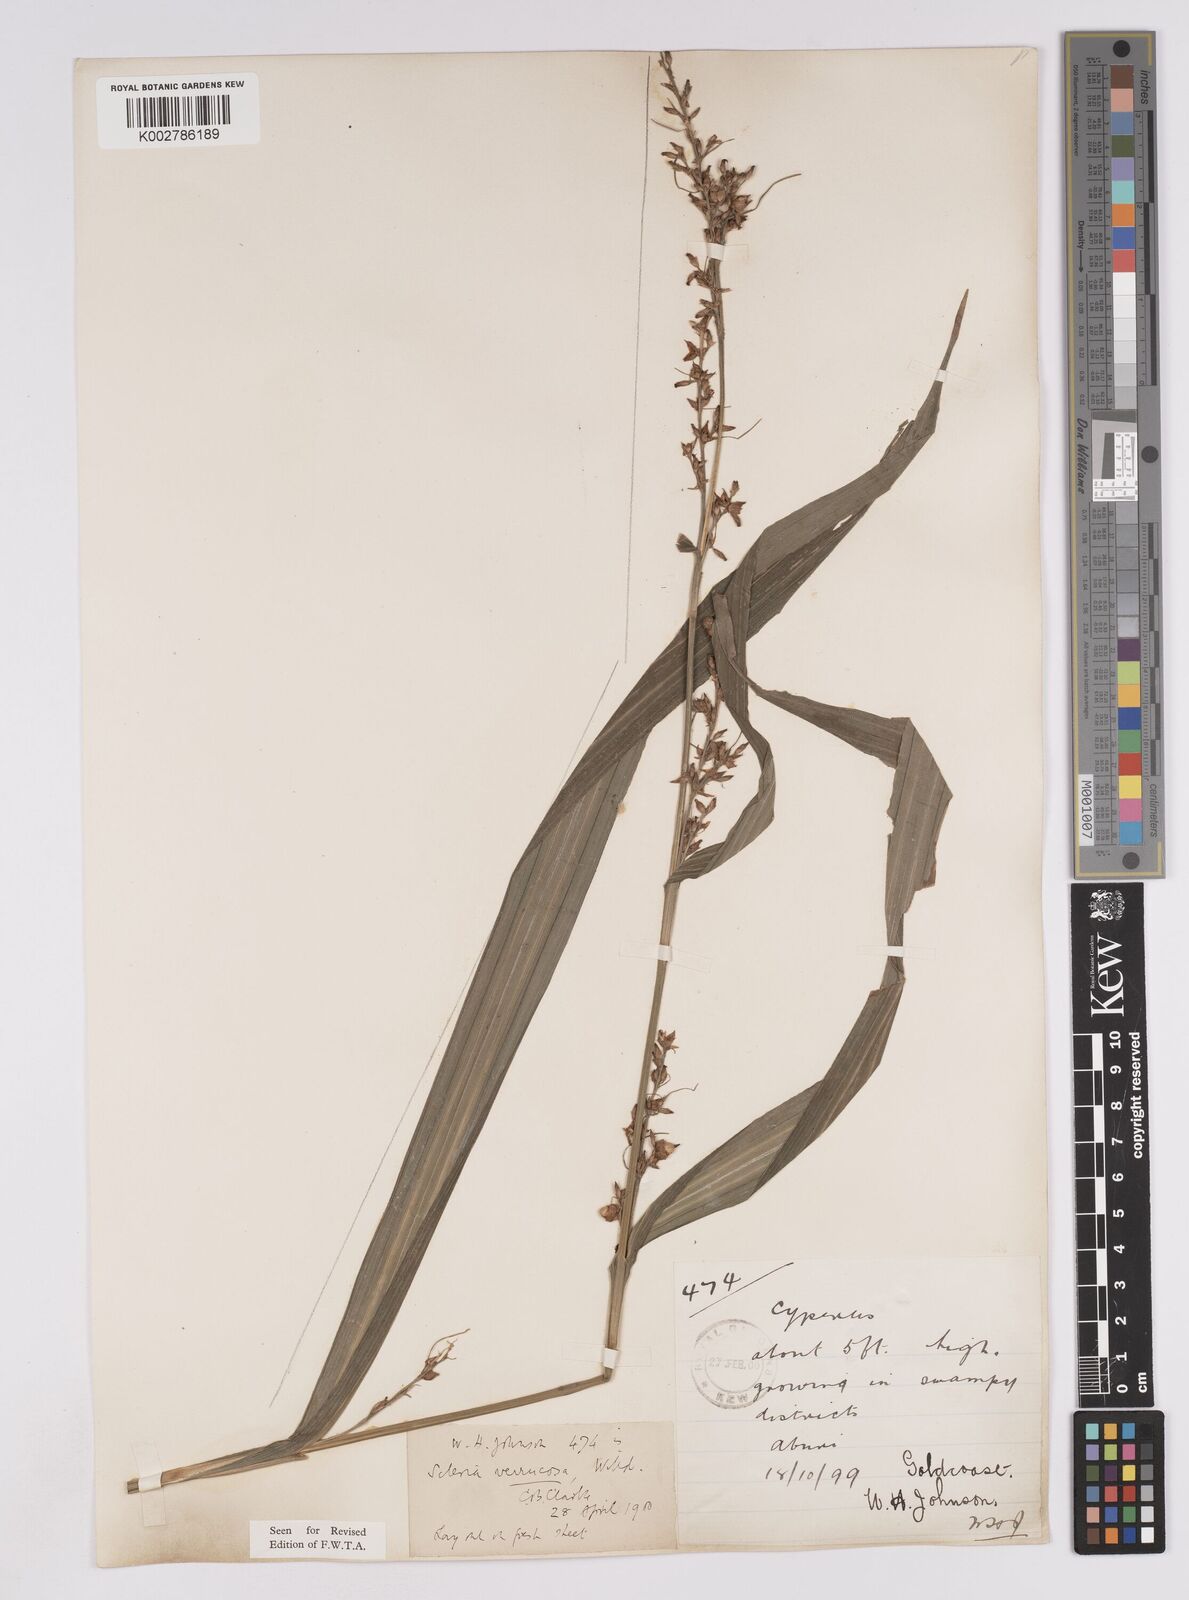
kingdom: Plantae
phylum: Tracheophyta
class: Liliopsida
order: Poales
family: Cyperaceae
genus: Scleria
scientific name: Scleria verrucosa
